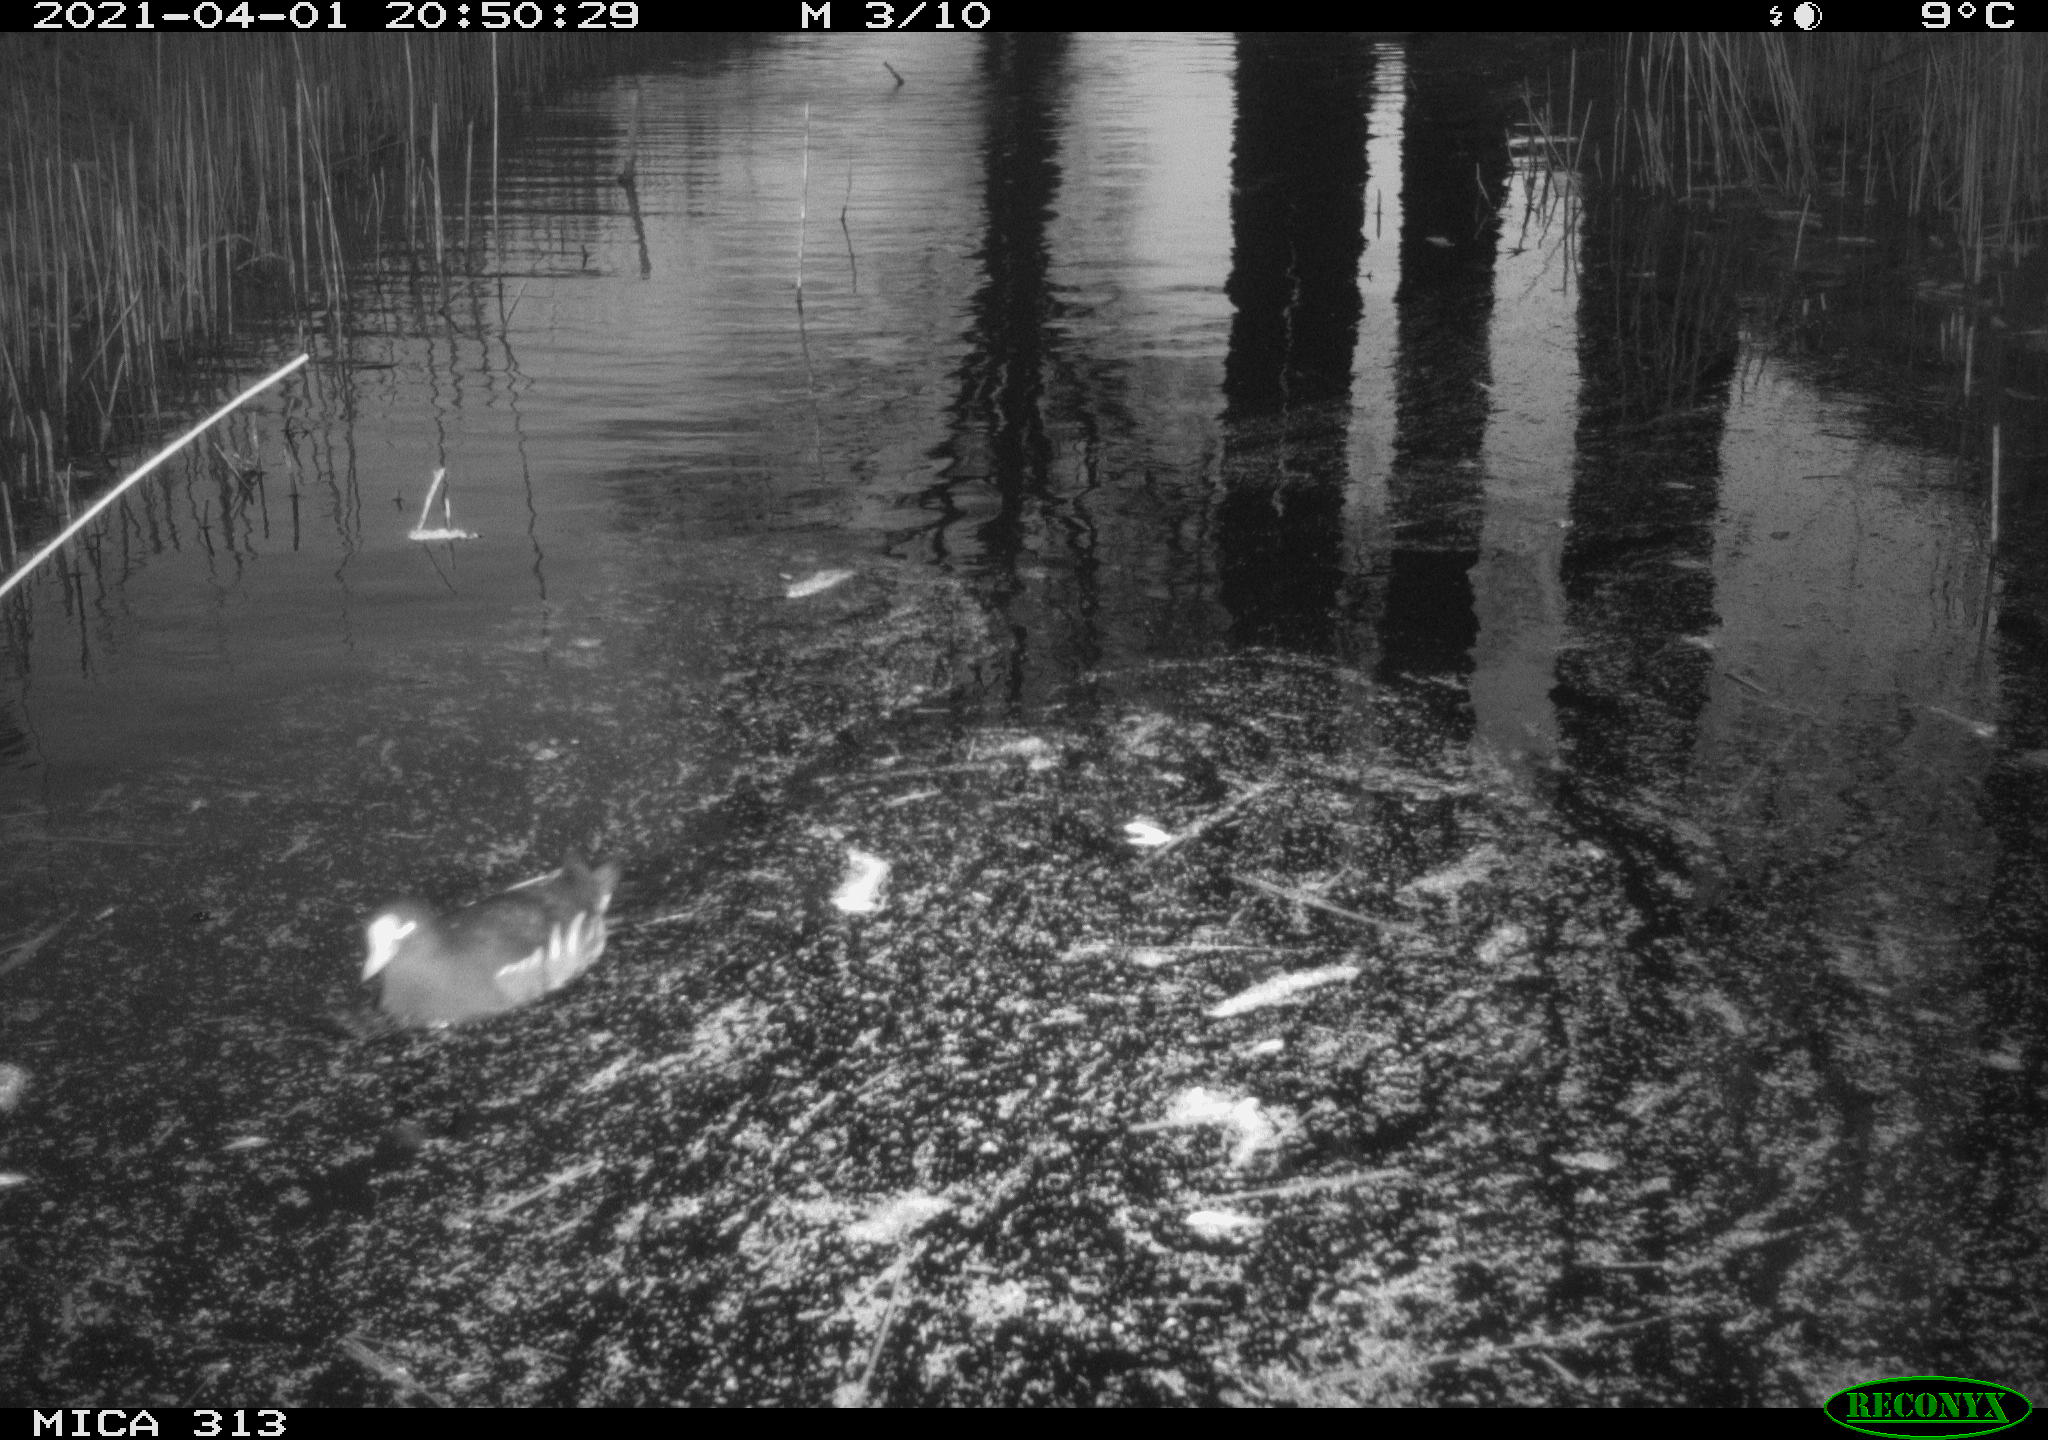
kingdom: Animalia
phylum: Chordata
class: Aves
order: Gruiformes
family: Rallidae
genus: Gallinula
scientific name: Gallinula chloropus
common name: Common moorhen
